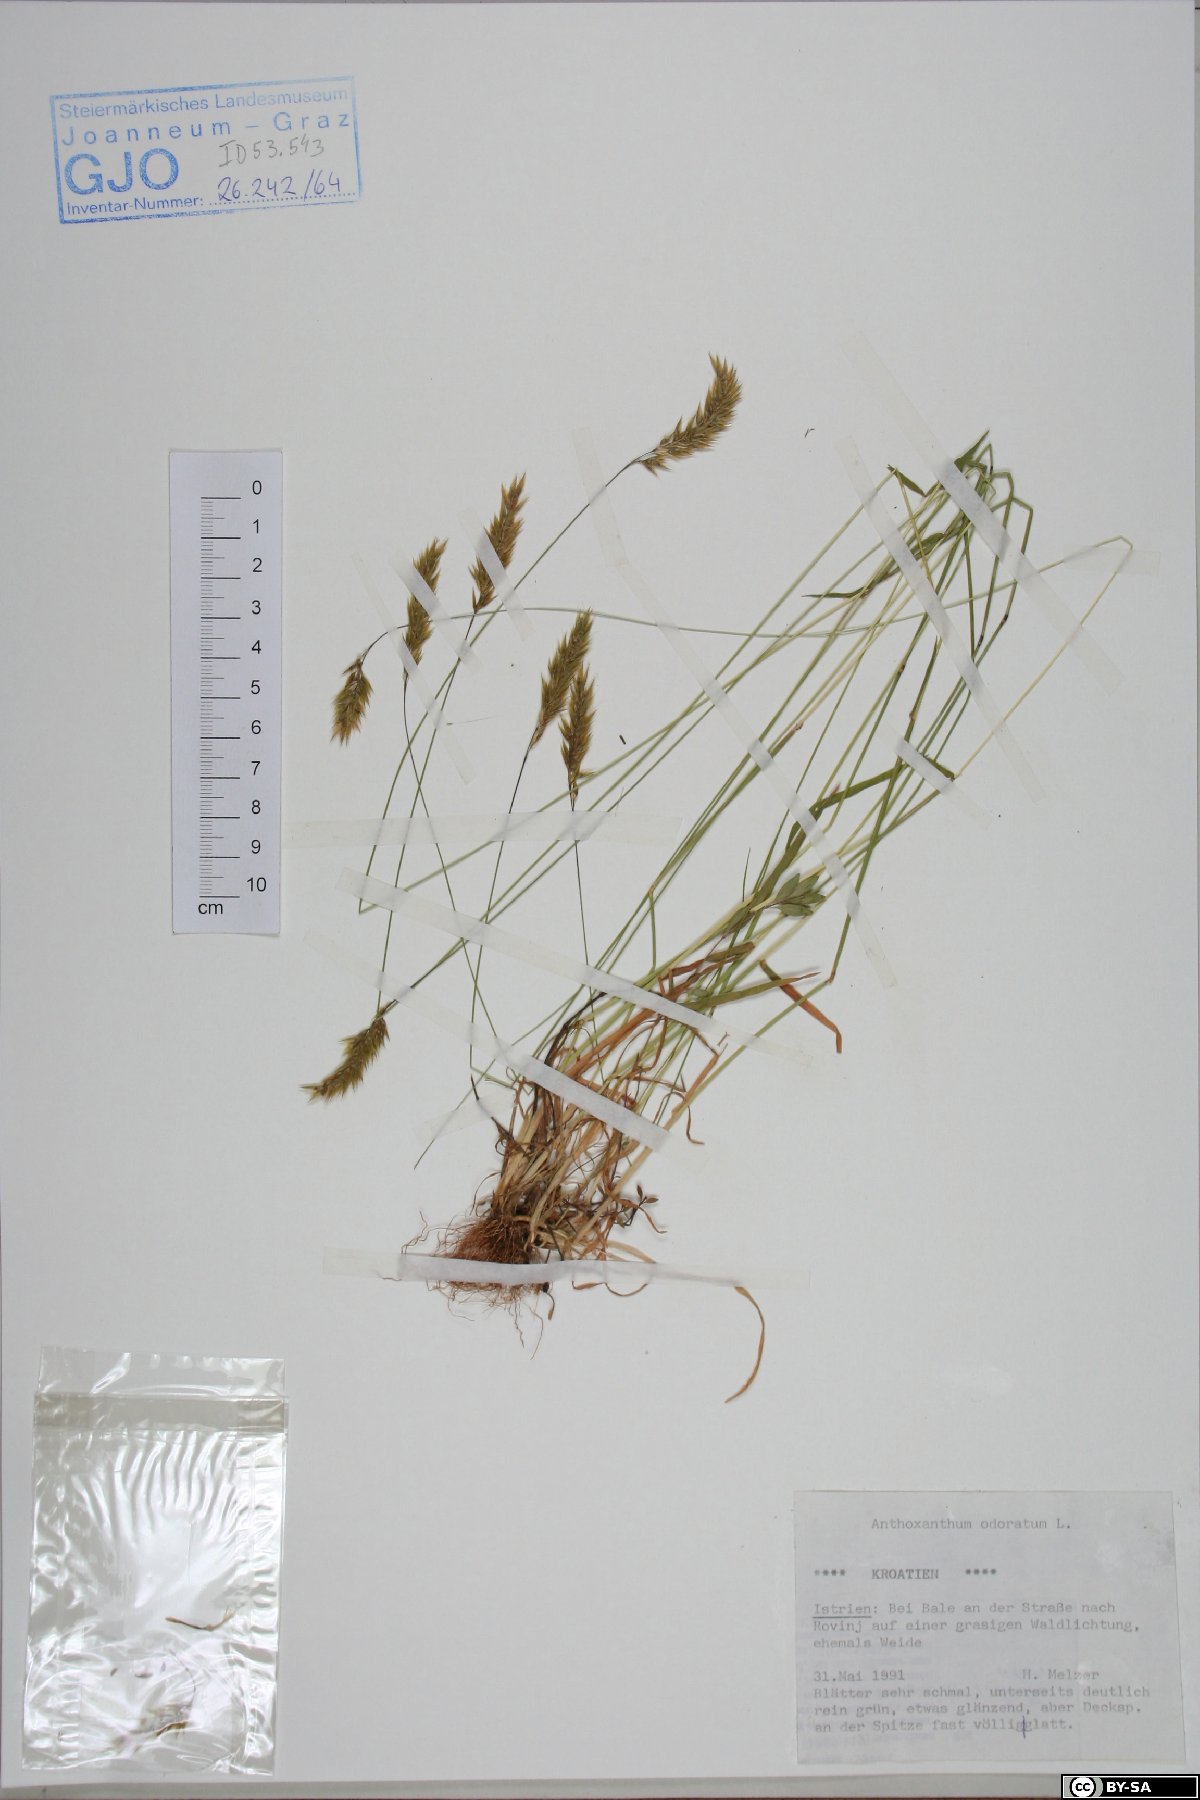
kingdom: Plantae
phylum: Tracheophyta
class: Liliopsida
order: Poales
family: Poaceae
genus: Anthoxanthum
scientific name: Anthoxanthum odoratum
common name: Sweet vernalgrass
